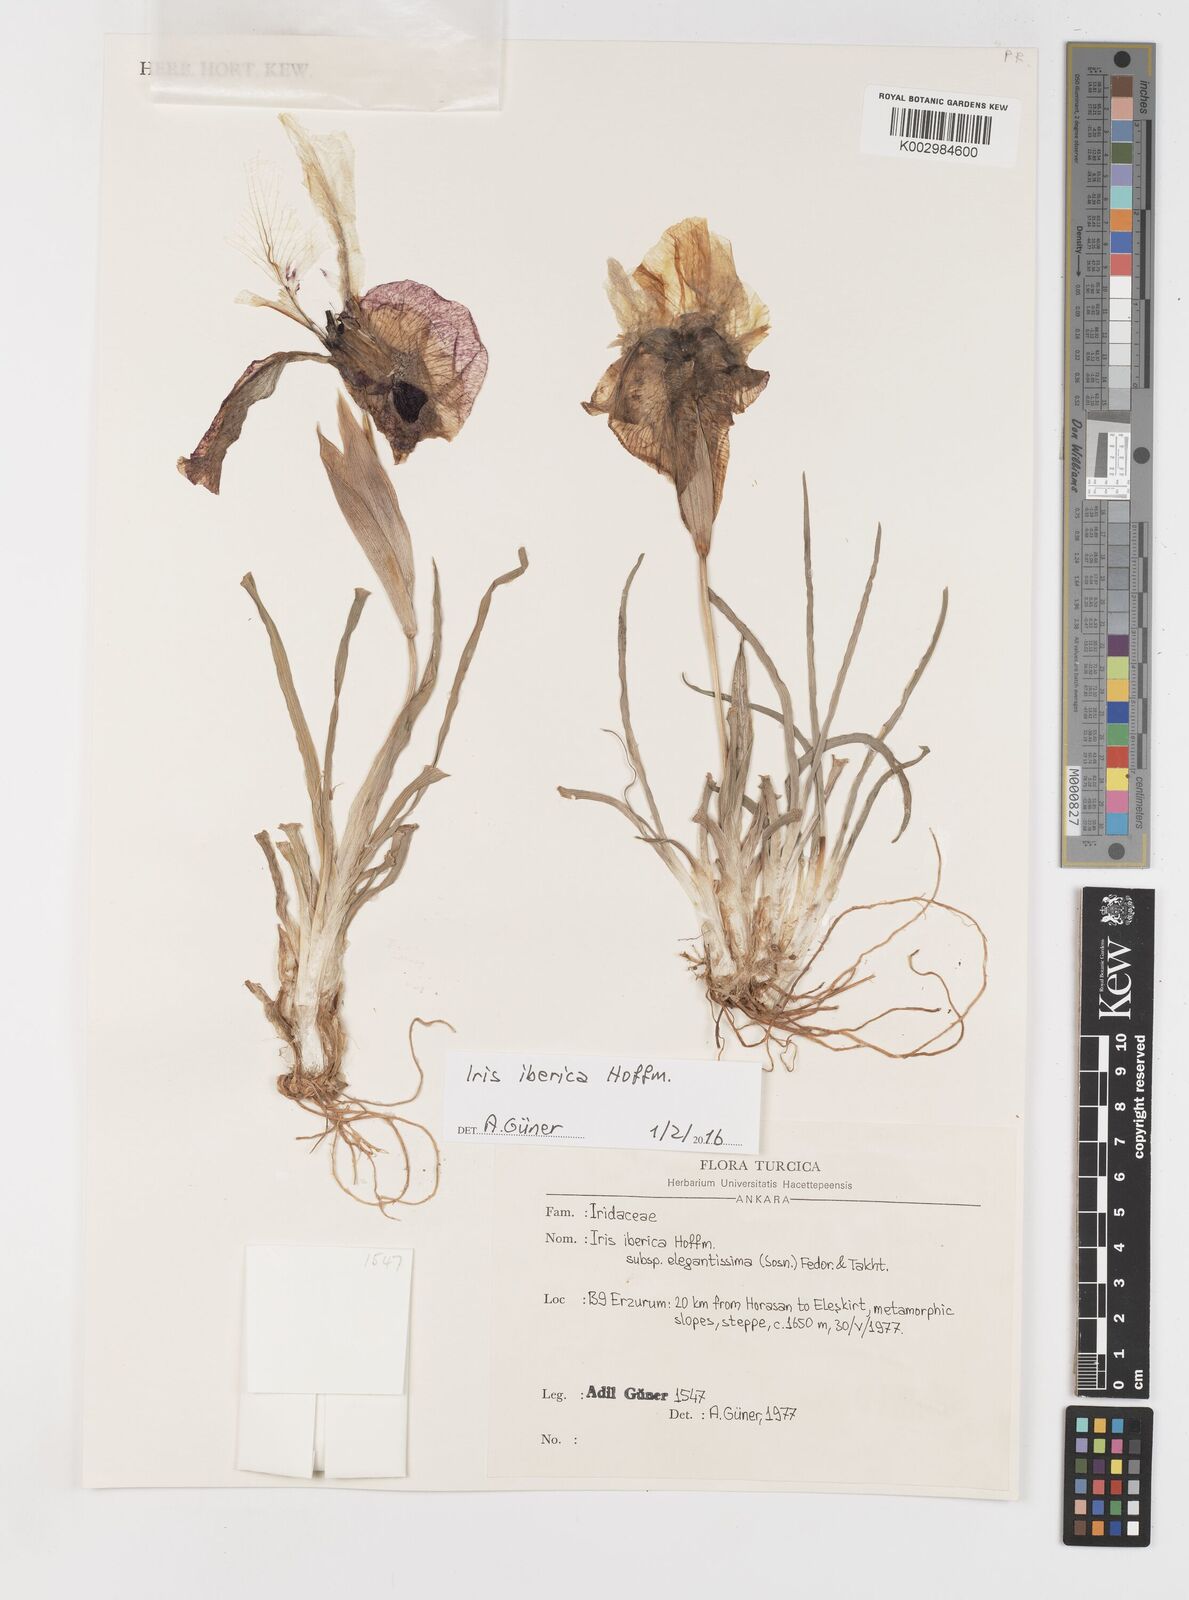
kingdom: Plantae
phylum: Tracheophyta
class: Liliopsida
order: Asparagales
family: Iridaceae
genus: Iris
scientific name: Iris iberica
